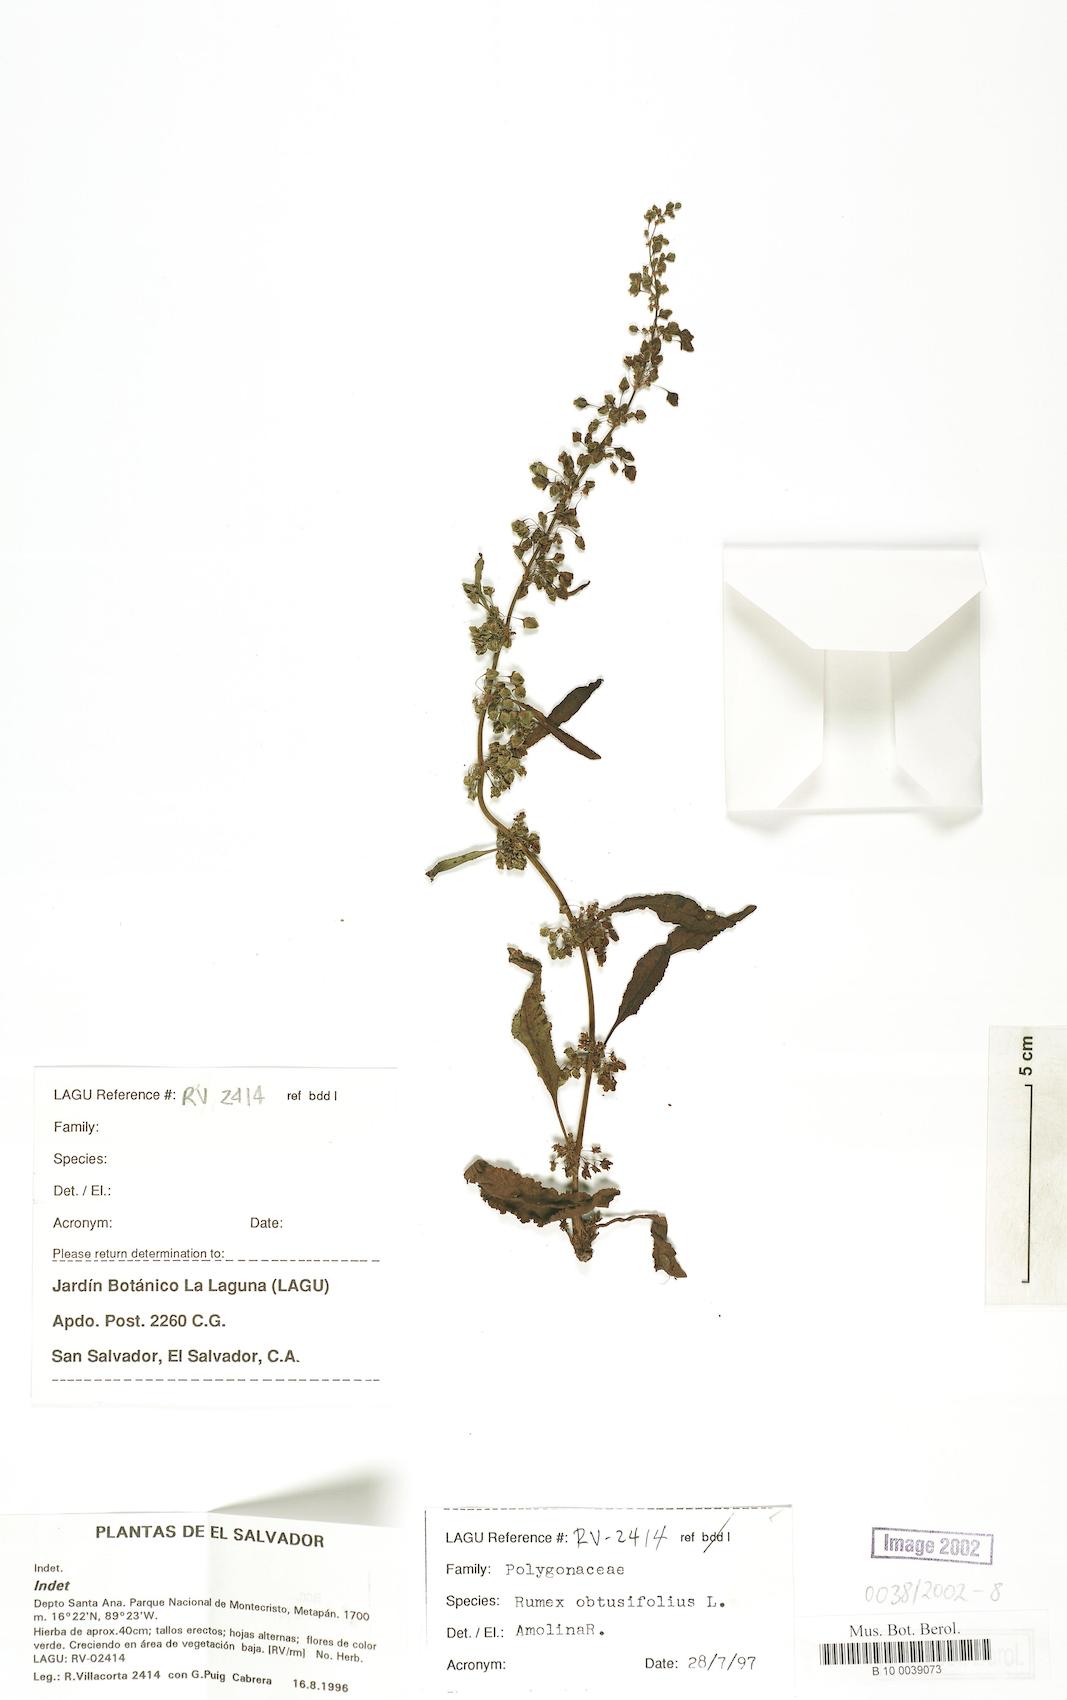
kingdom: Plantae
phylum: Tracheophyta
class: Magnoliopsida
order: Caryophyllales
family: Polygonaceae
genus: Rumex
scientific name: Rumex crispus
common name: Curled dock
